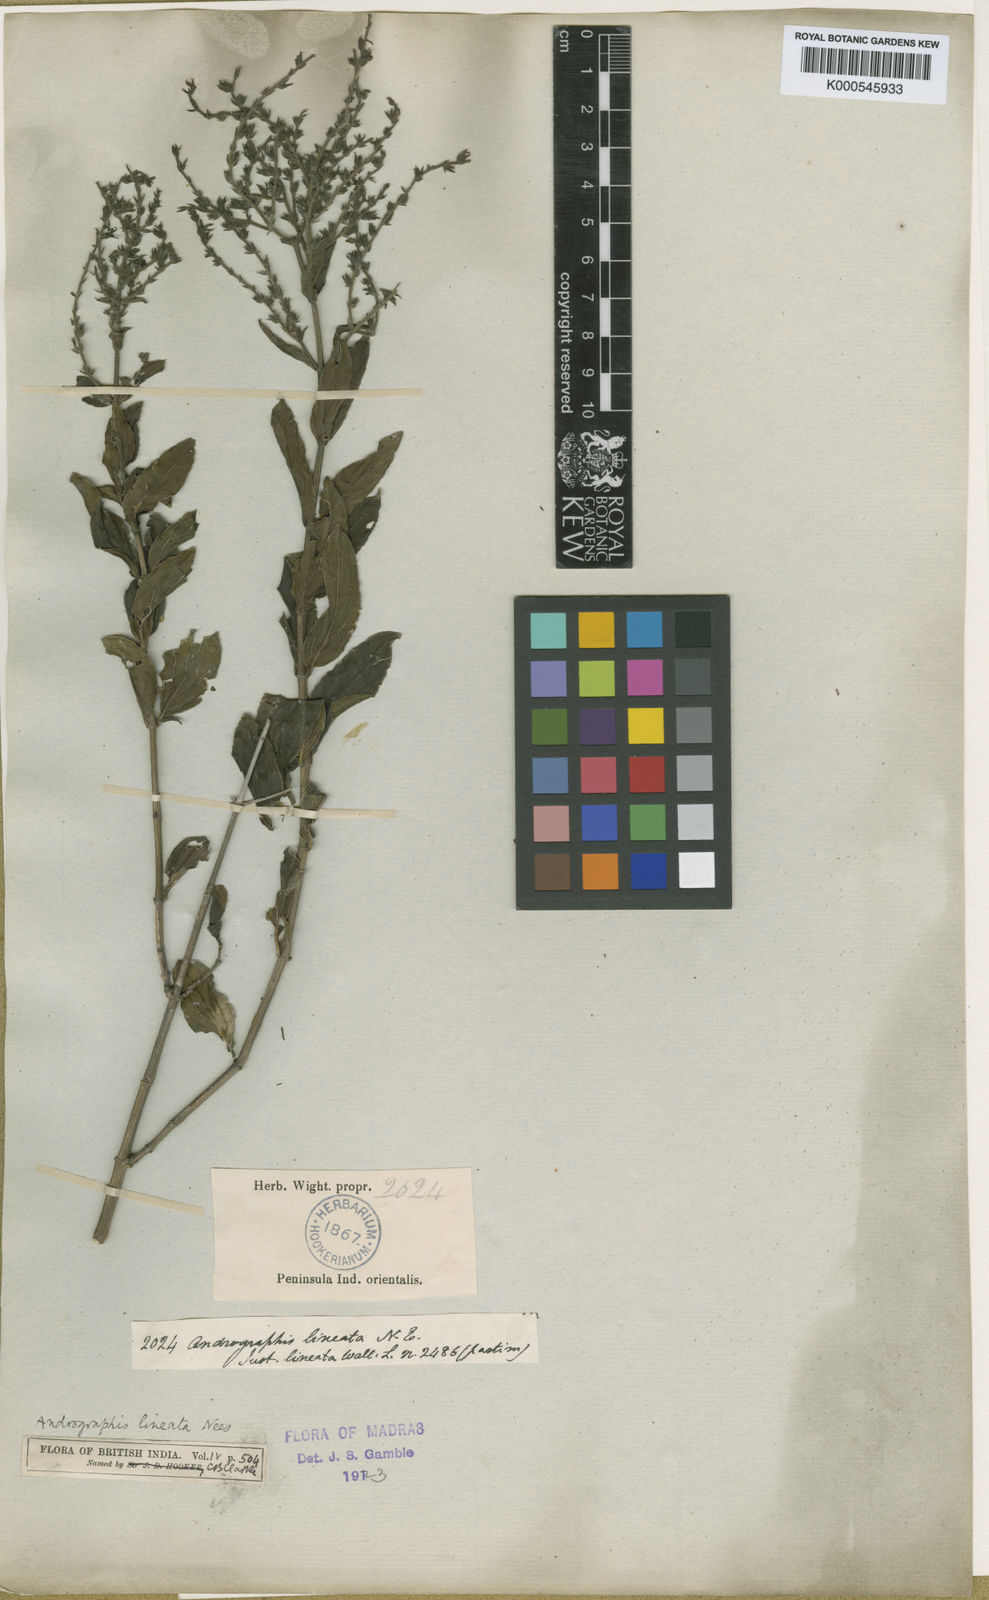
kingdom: Plantae
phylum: Tracheophyta
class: Magnoliopsida
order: Lamiales
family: Acanthaceae
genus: Andrographis
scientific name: Andrographis lineata
